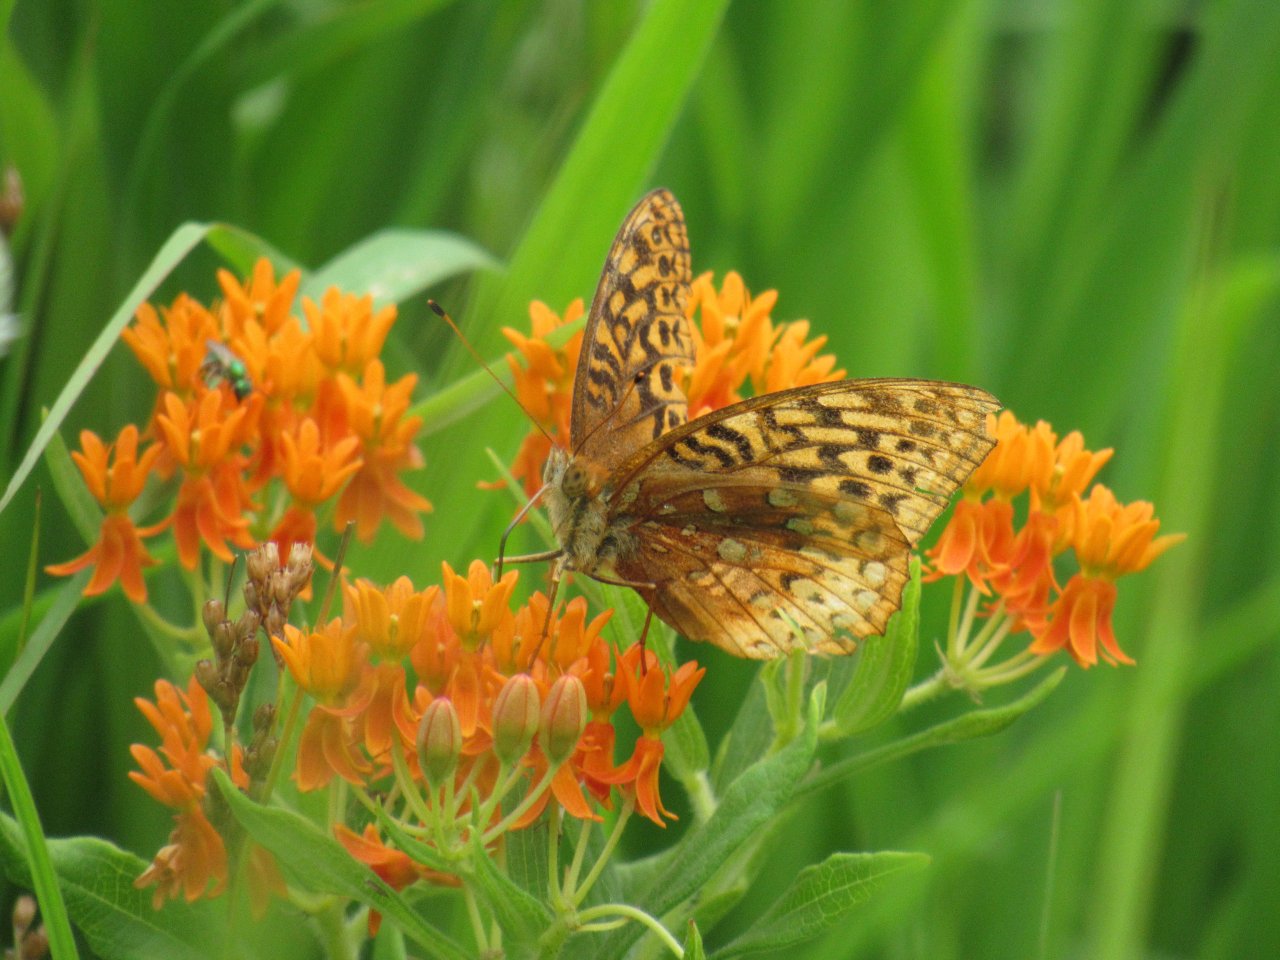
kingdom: Animalia
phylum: Arthropoda
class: Insecta
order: Lepidoptera
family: Nymphalidae
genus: Speyeria
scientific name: Speyeria cybele
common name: Great Spangled Fritillary
